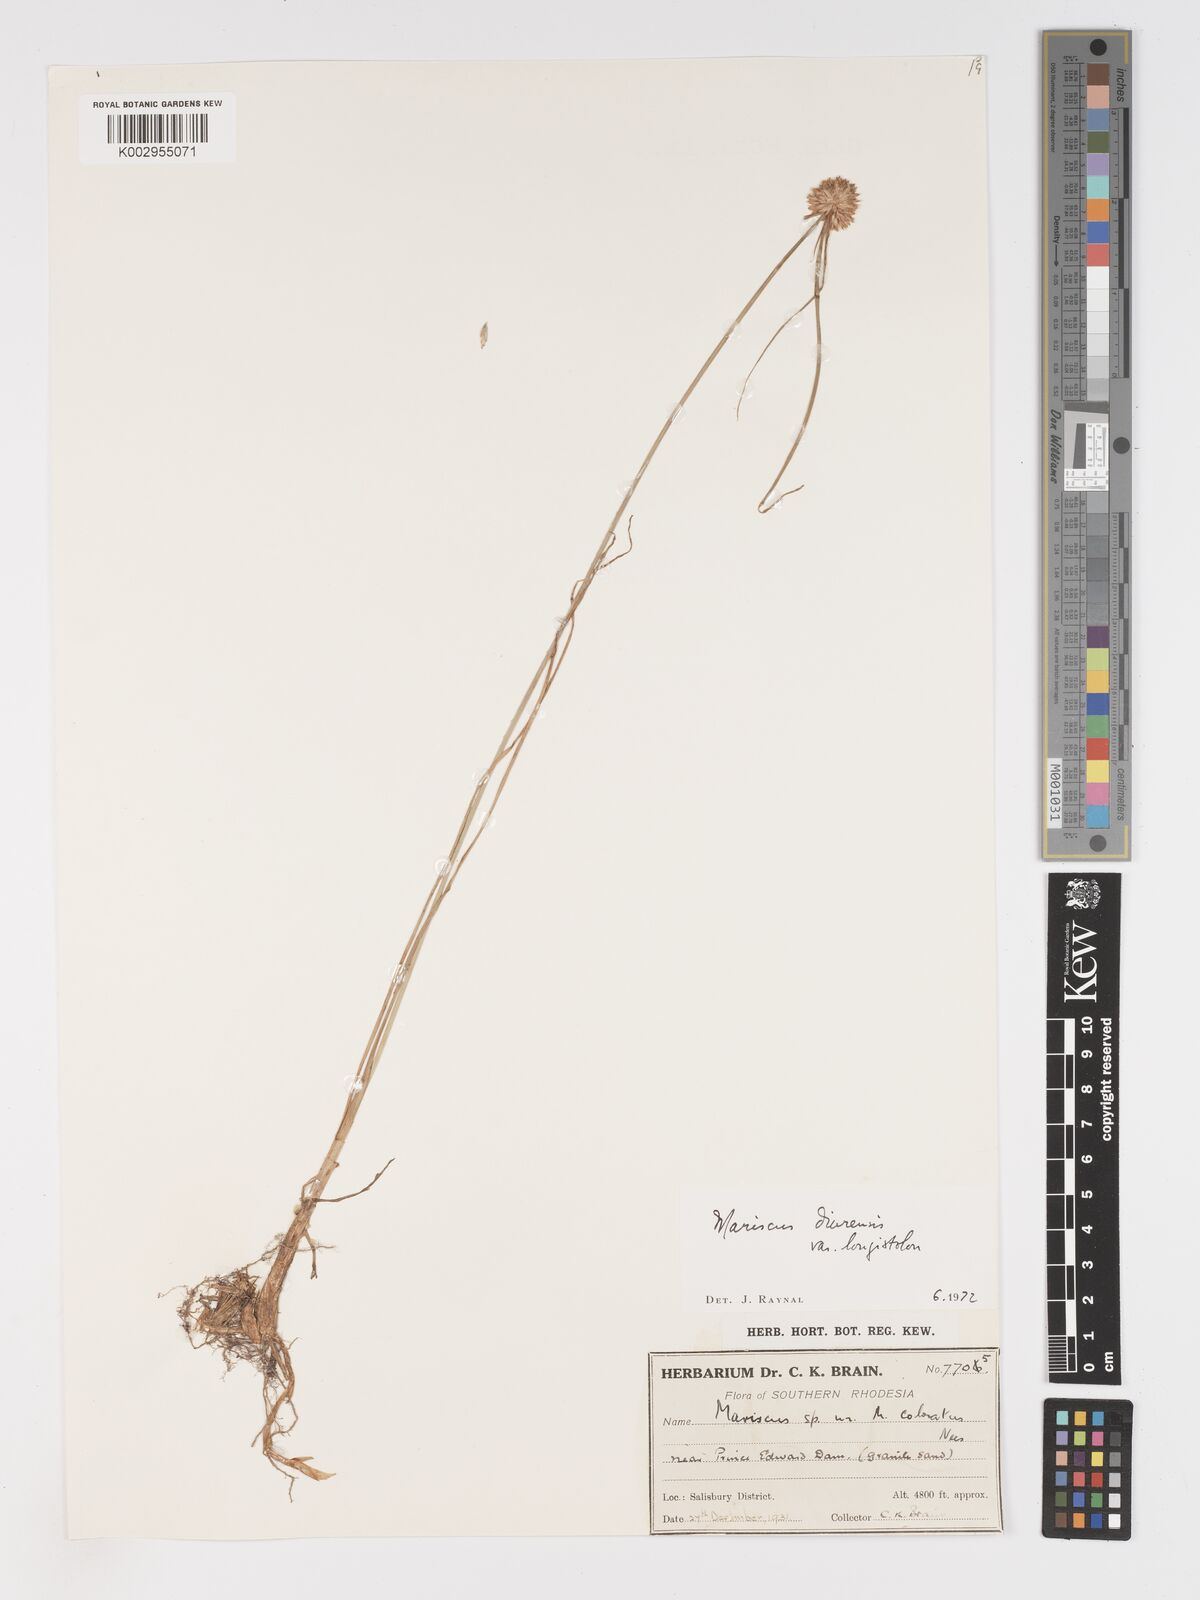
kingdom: Plantae
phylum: Tracheophyta
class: Liliopsida
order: Poales
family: Cyperaceae
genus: Cyperus
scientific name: Cyperus diurensis
